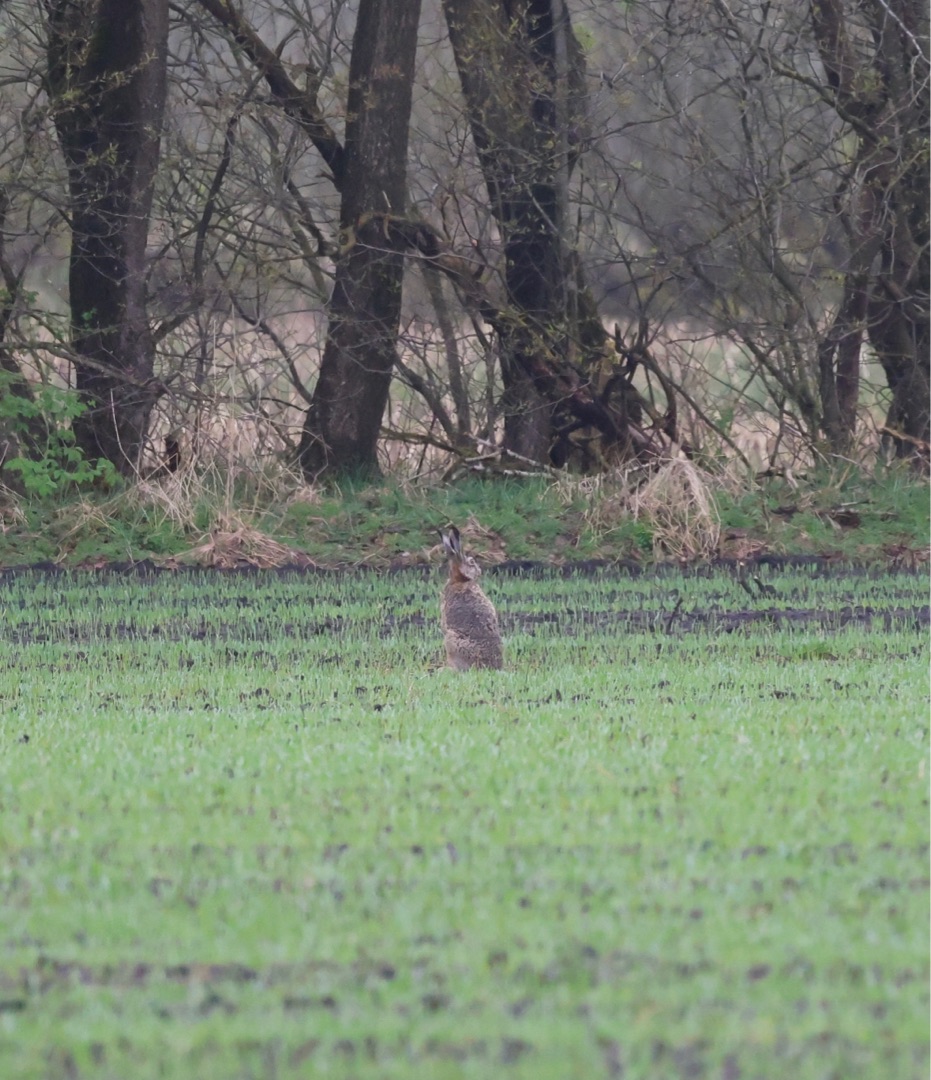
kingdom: Animalia
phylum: Chordata
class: Mammalia
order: Lagomorpha
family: Leporidae
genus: Lepus
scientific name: Lepus europaeus
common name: Hare
